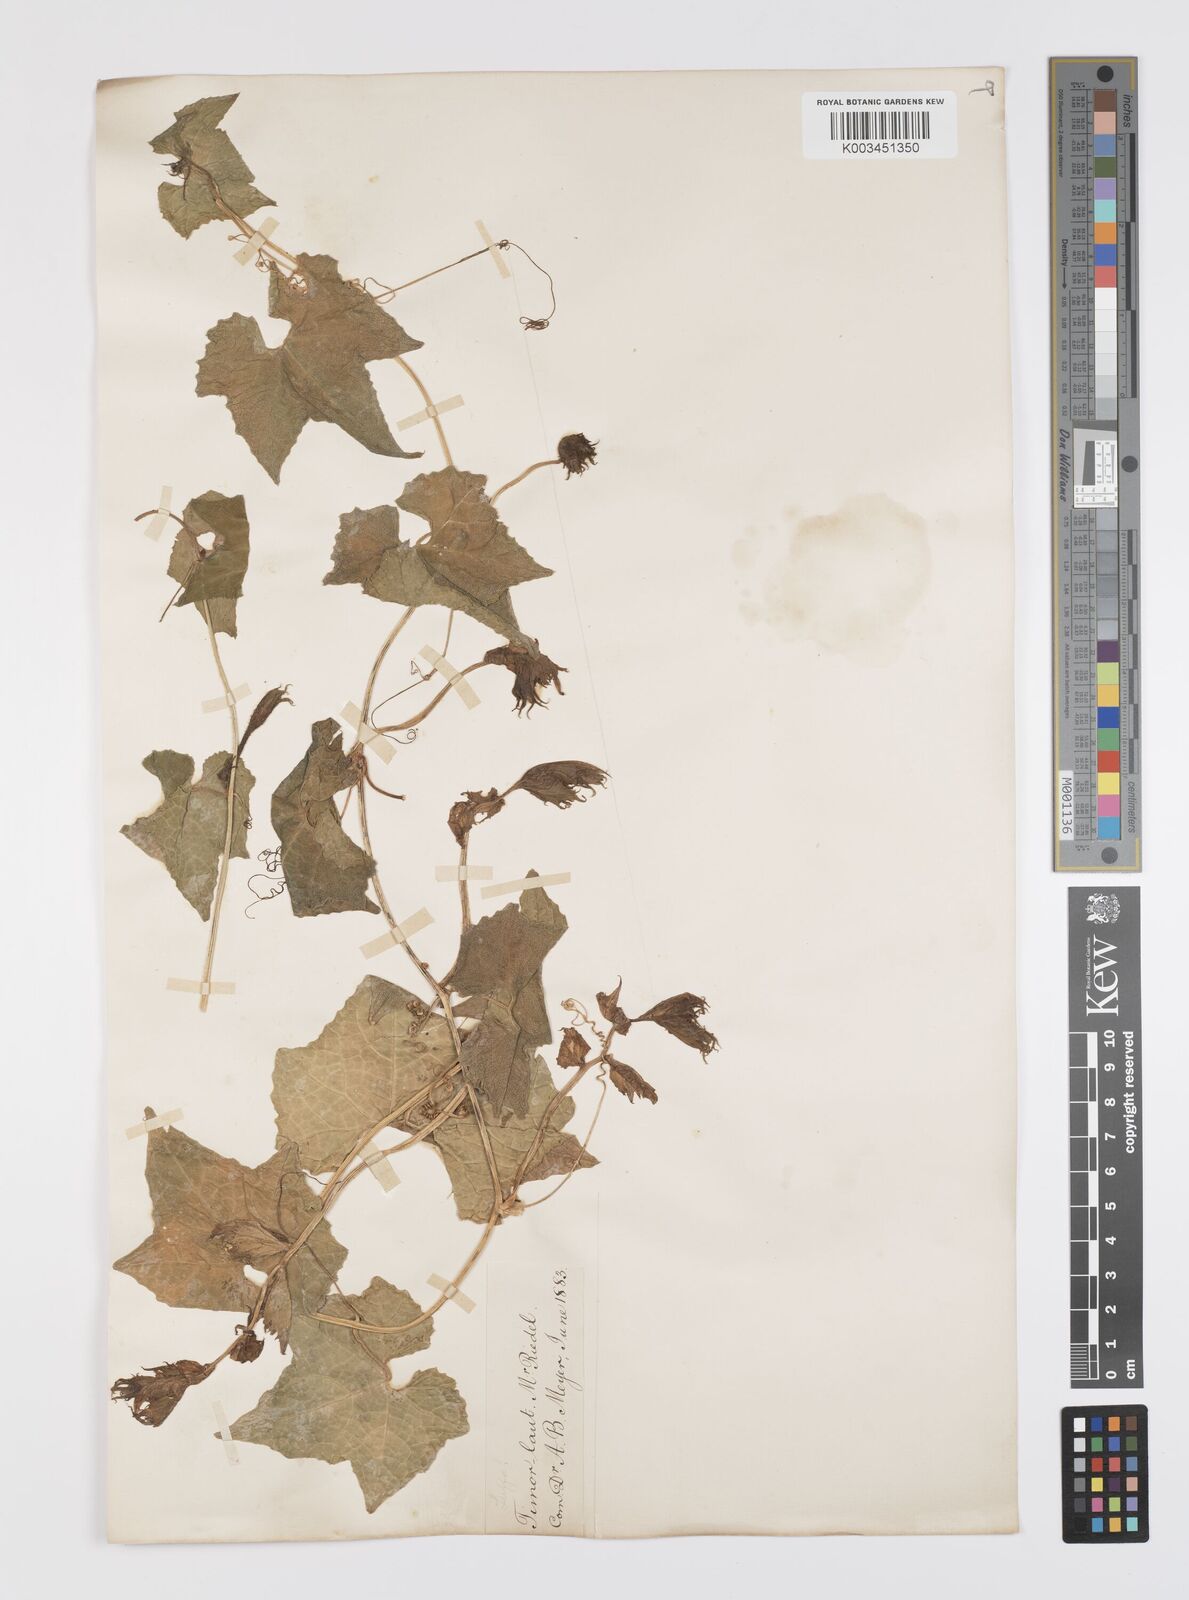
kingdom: Plantae
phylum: Tracheophyta
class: Magnoliopsida
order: Cucurbitales
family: Cucurbitaceae
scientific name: Cucurbitaceae
